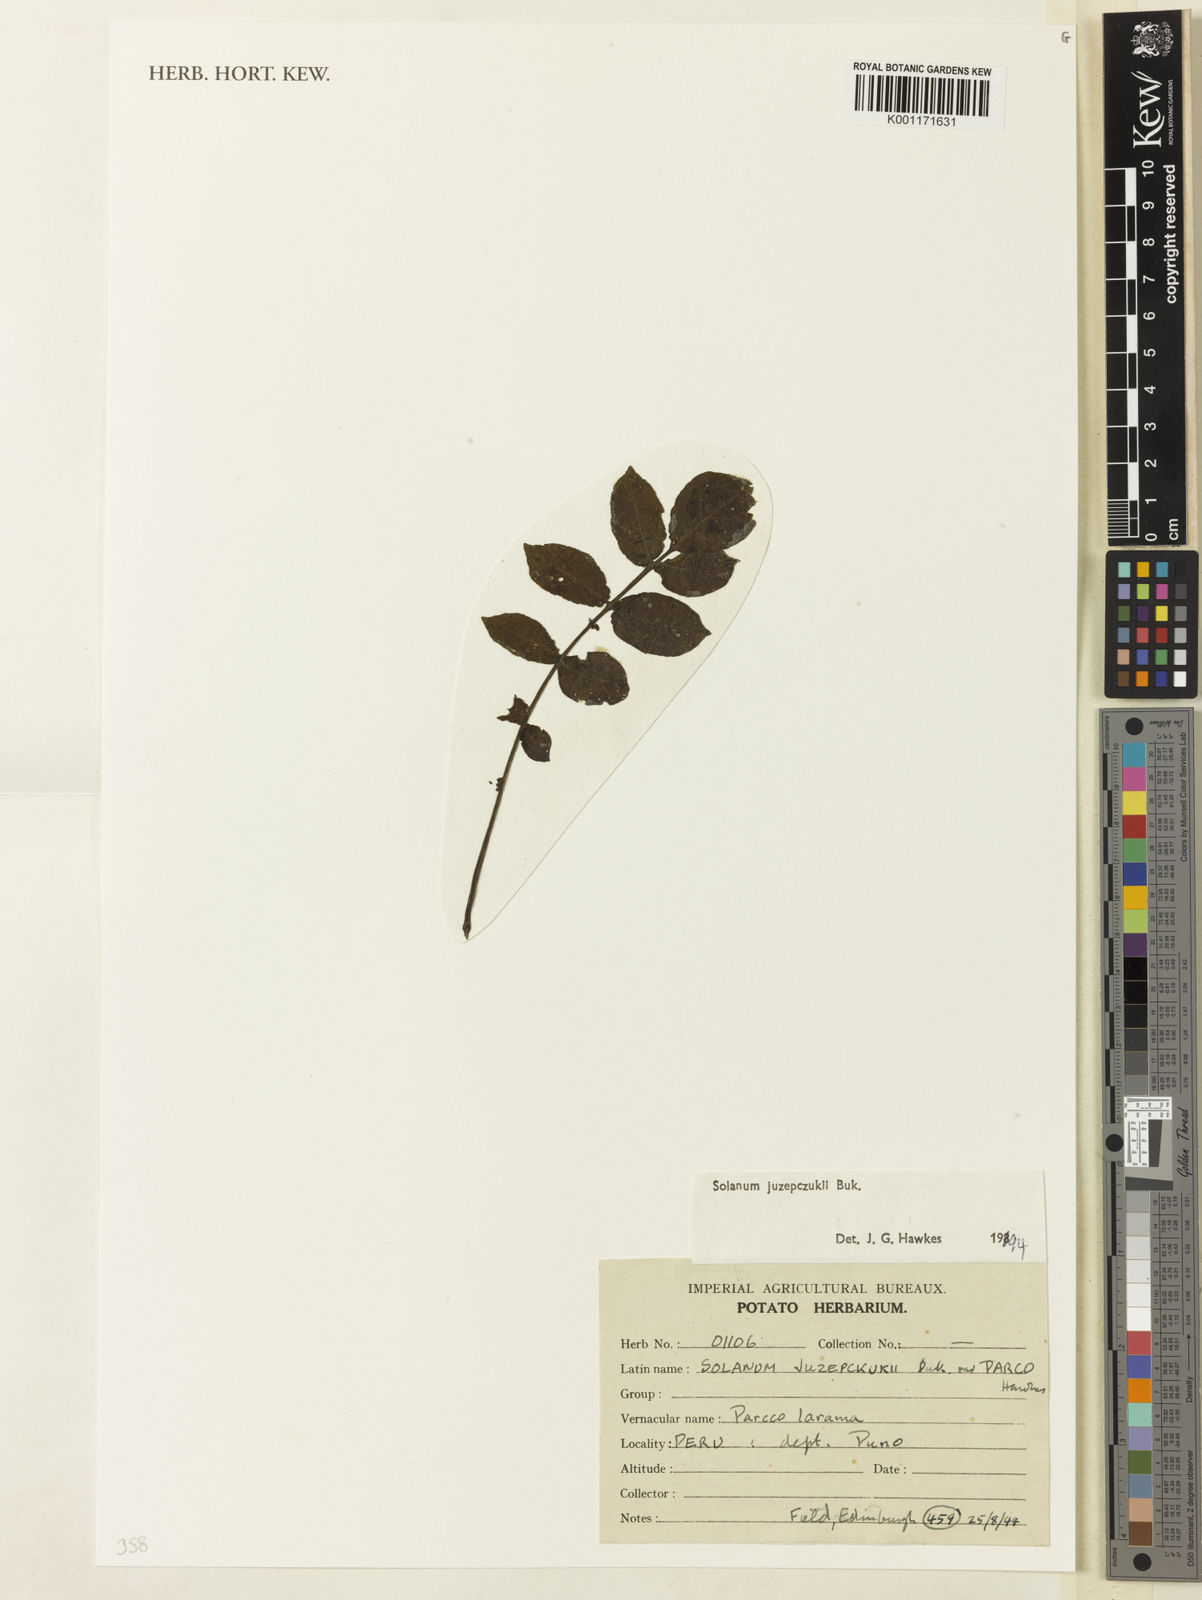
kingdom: Plantae
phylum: Tracheophyta
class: Magnoliopsida
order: Solanales
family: Solanaceae
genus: Solanum
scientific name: Solanum juzepczukii
